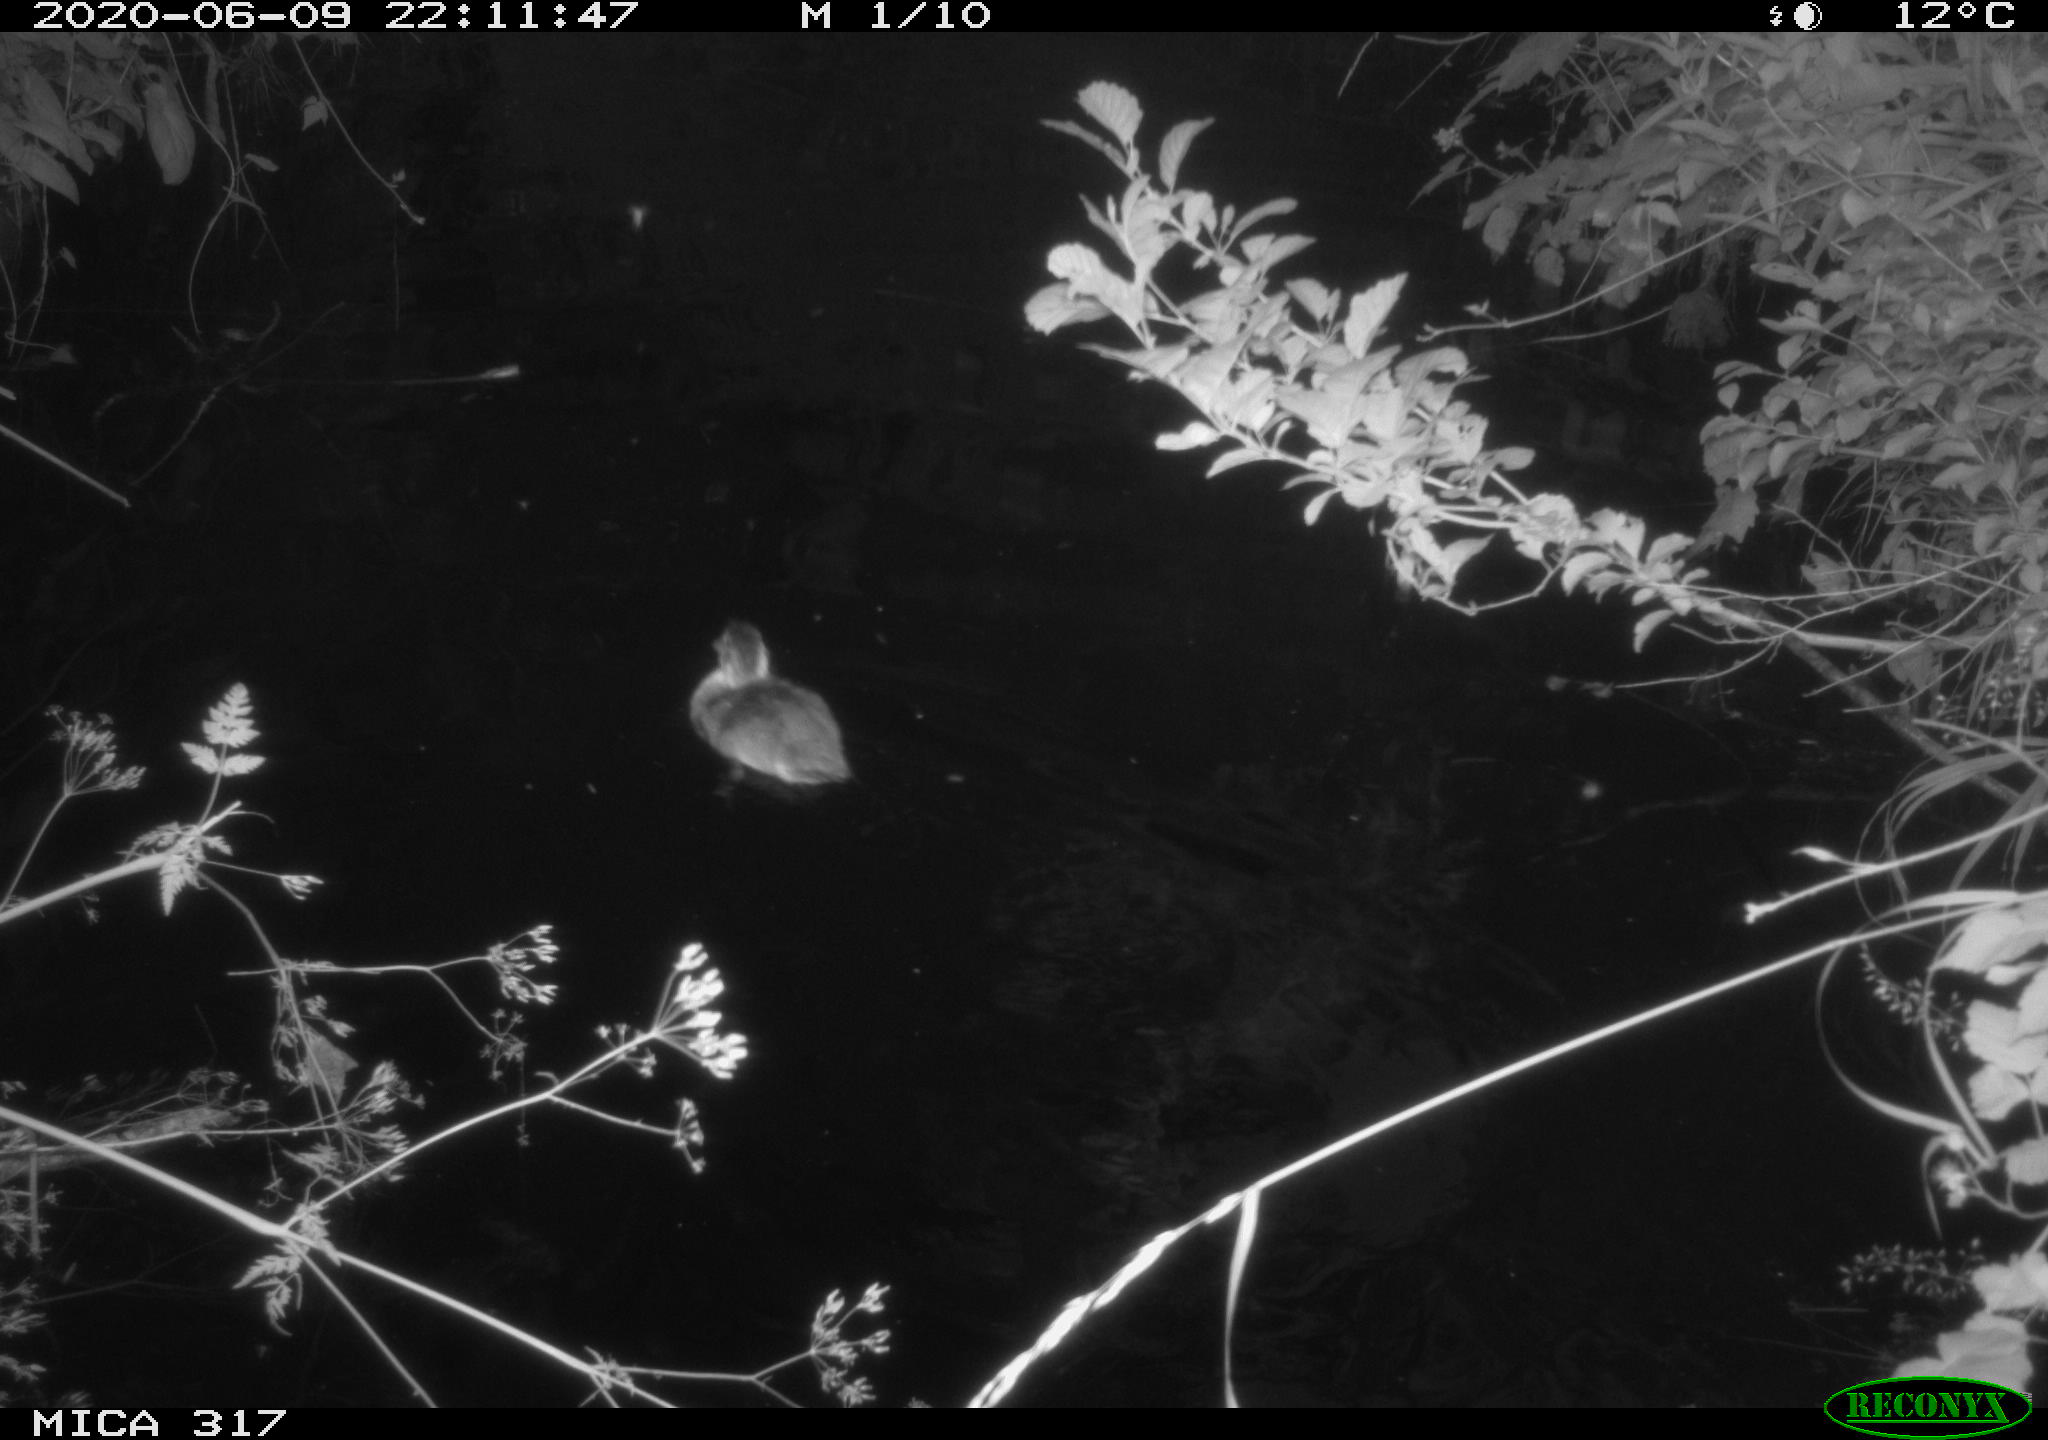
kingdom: Animalia
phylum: Chordata
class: Aves
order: Anseriformes
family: Anatidae
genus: Anas
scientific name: Anas platyrhynchos
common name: Mallard
